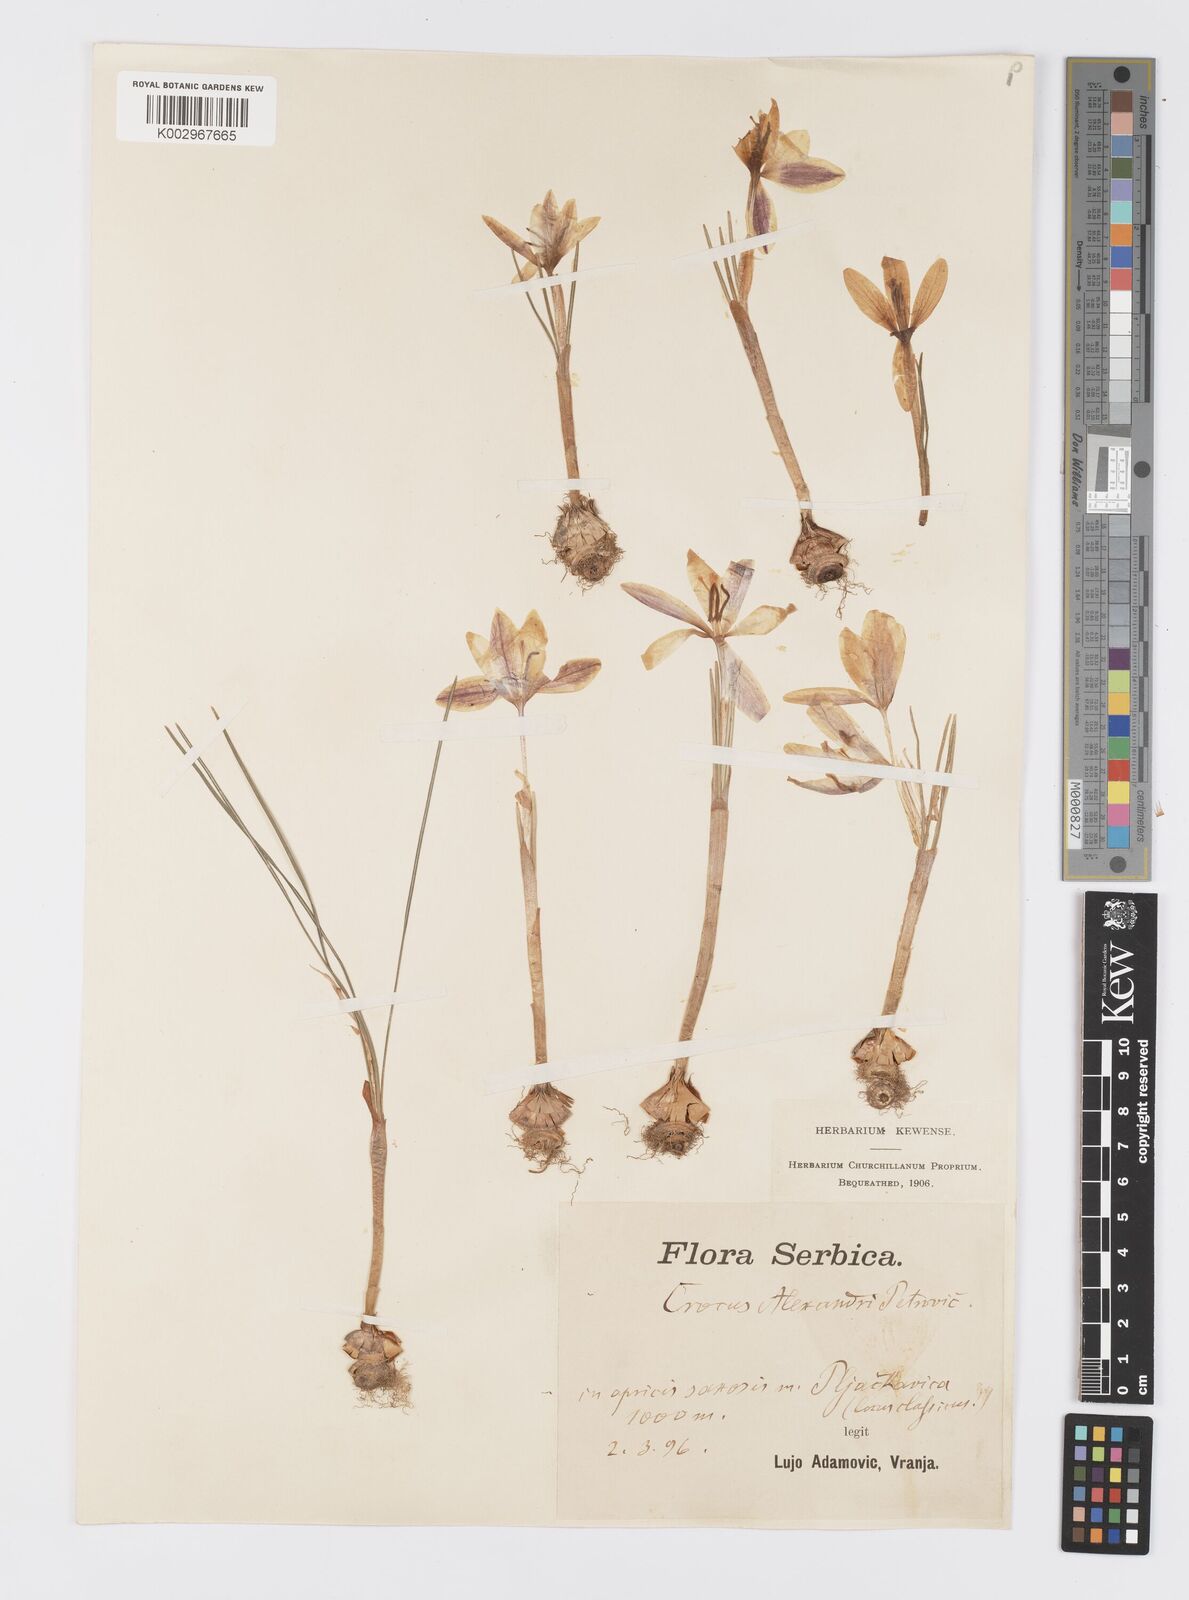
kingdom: Plantae
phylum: Tracheophyta
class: Liliopsida
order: Asparagales
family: Iridaceae
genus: Crocus
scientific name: Crocus alexandri
